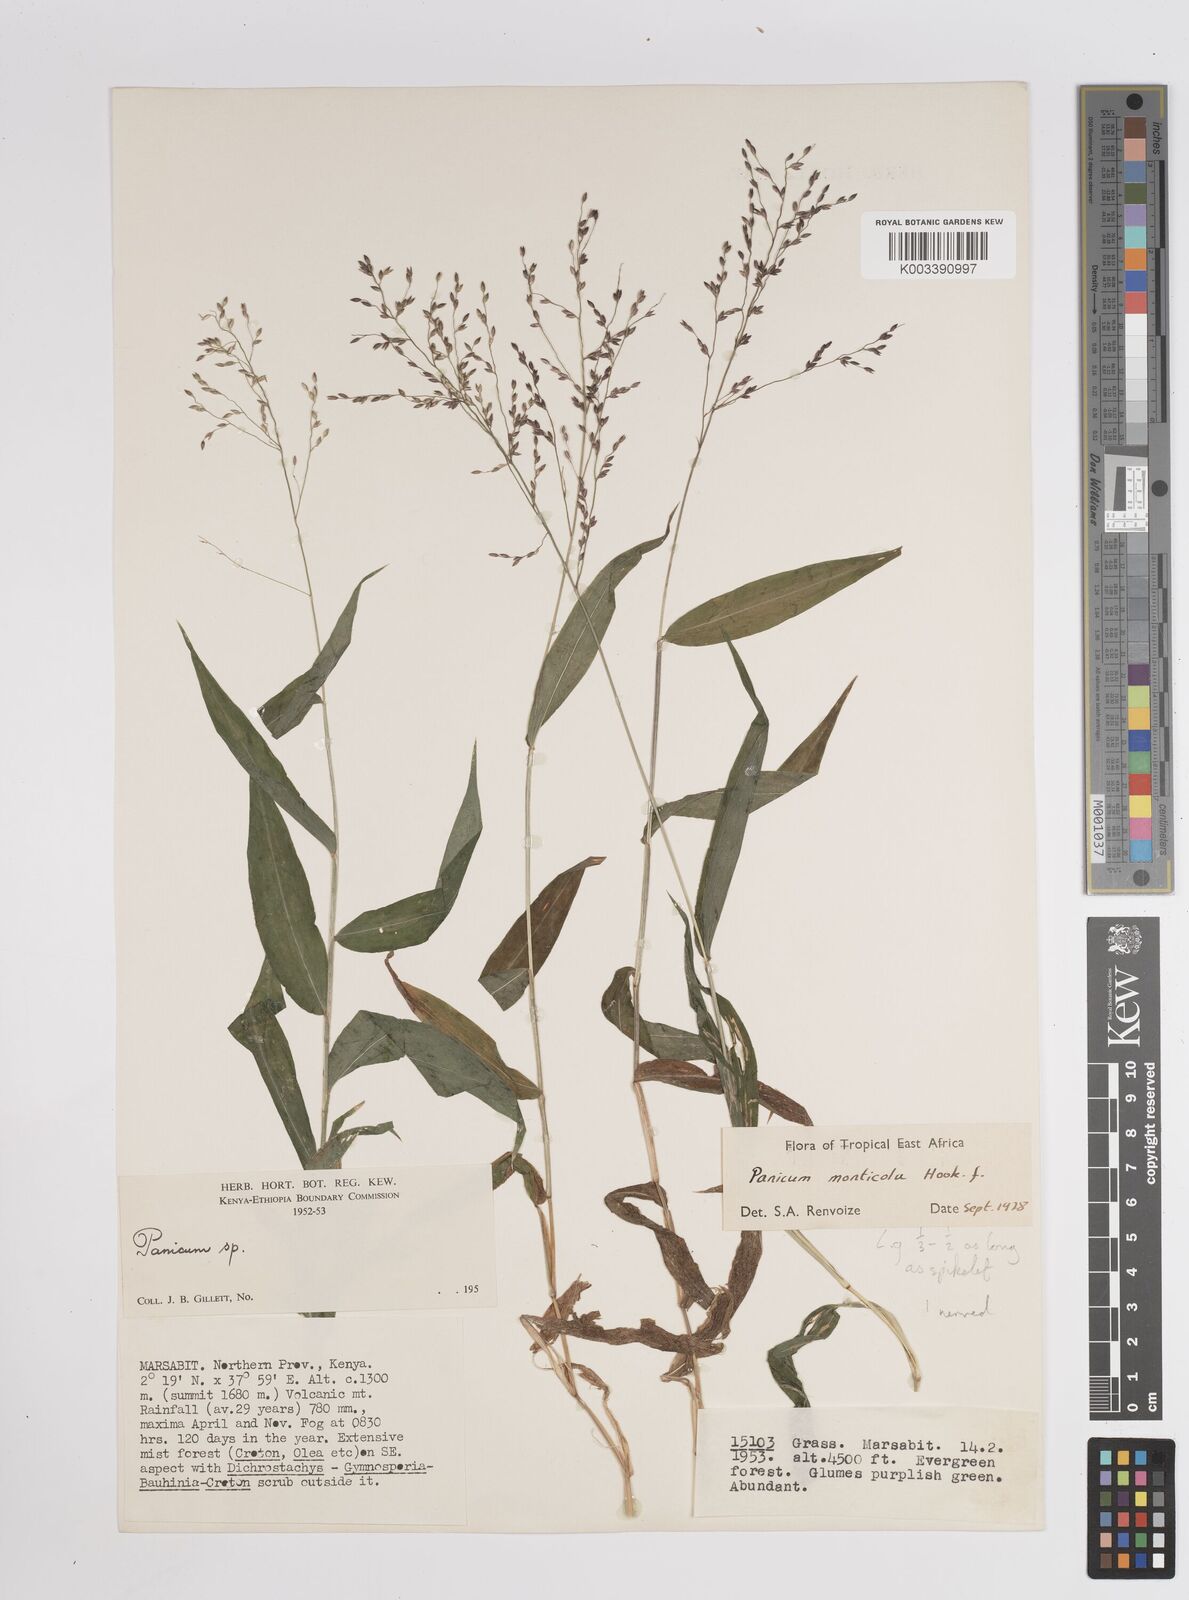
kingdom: Plantae
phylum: Tracheophyta
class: Liliopsida
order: Poales
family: Poaceae
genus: Panicum
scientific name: Panicum monticola
